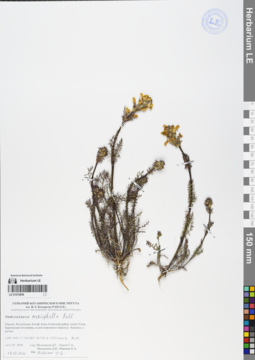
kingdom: Plantae
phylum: Tracheophyta
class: Magnoliopsida
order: Lamiales
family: Orobanchaceae
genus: Pedicularis
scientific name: Pedicularis myriophylla
